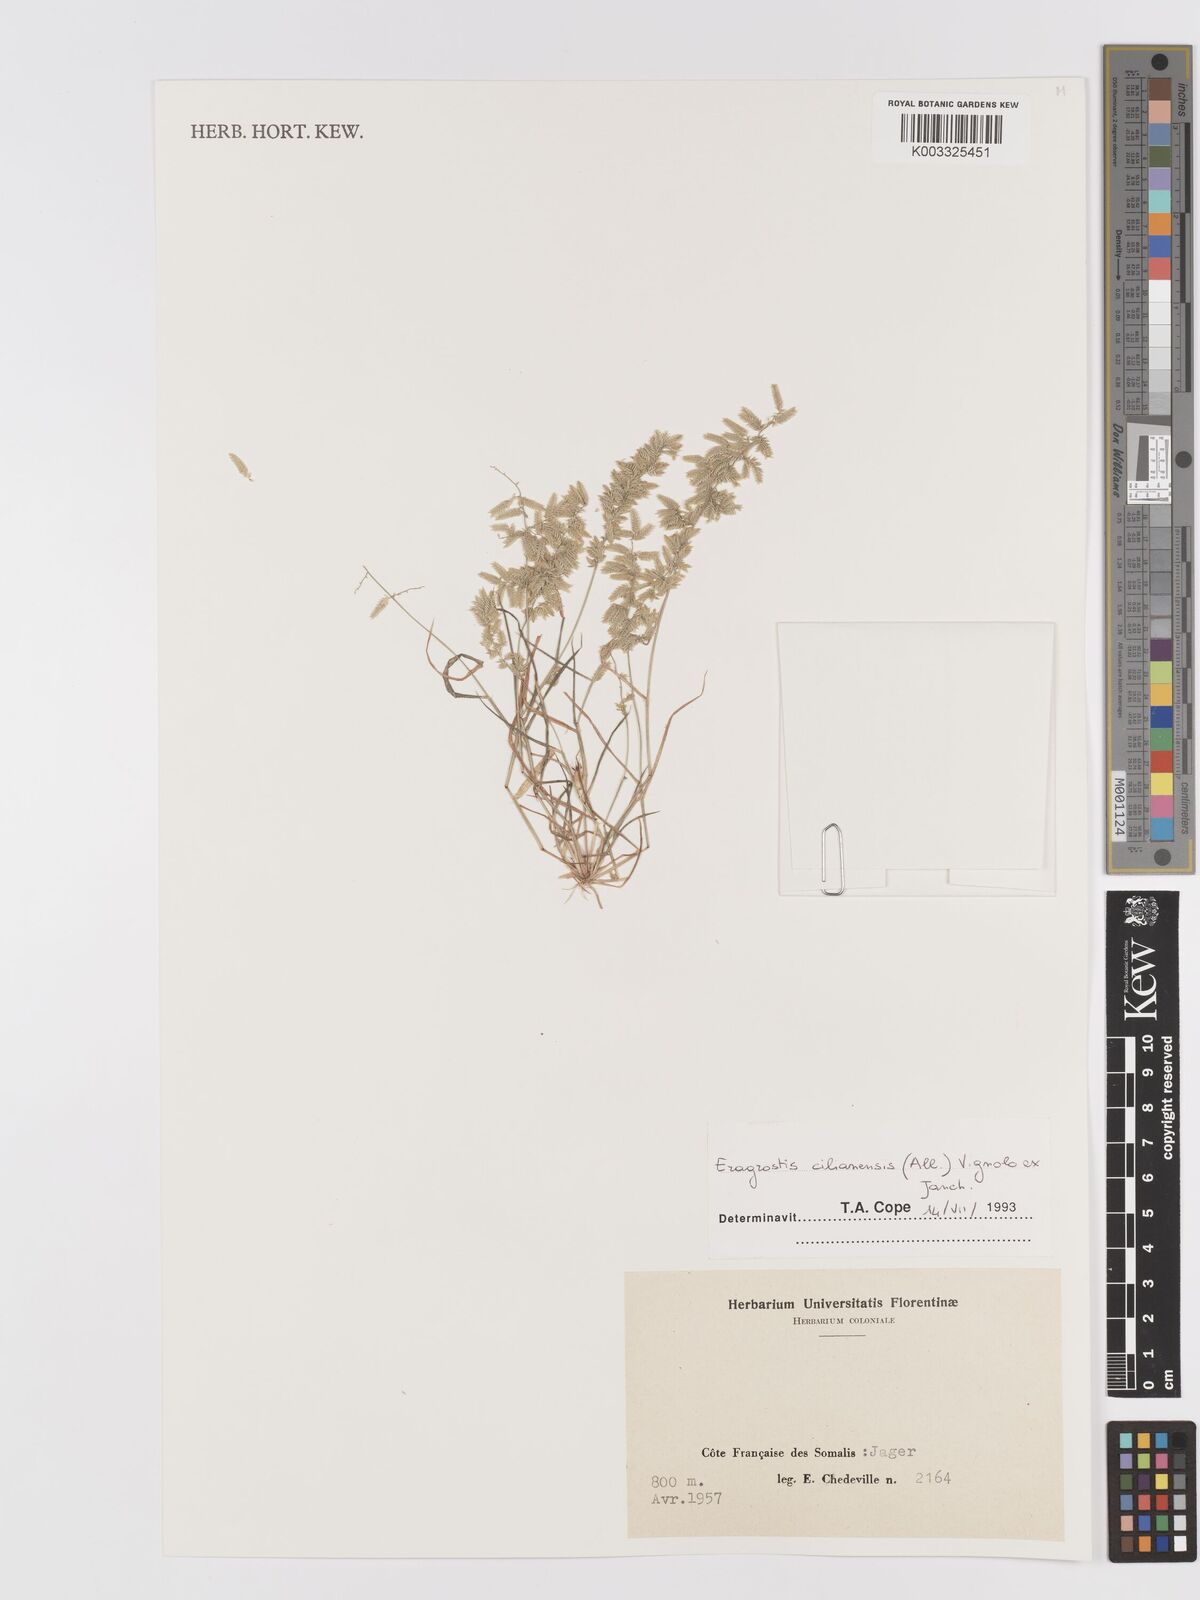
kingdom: Plantae
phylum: Tracheophyta
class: Liliopsida
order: Poales
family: Poaceae
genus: Eragrostis
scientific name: Eragrostis cilianensis
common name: Stinkgrass
